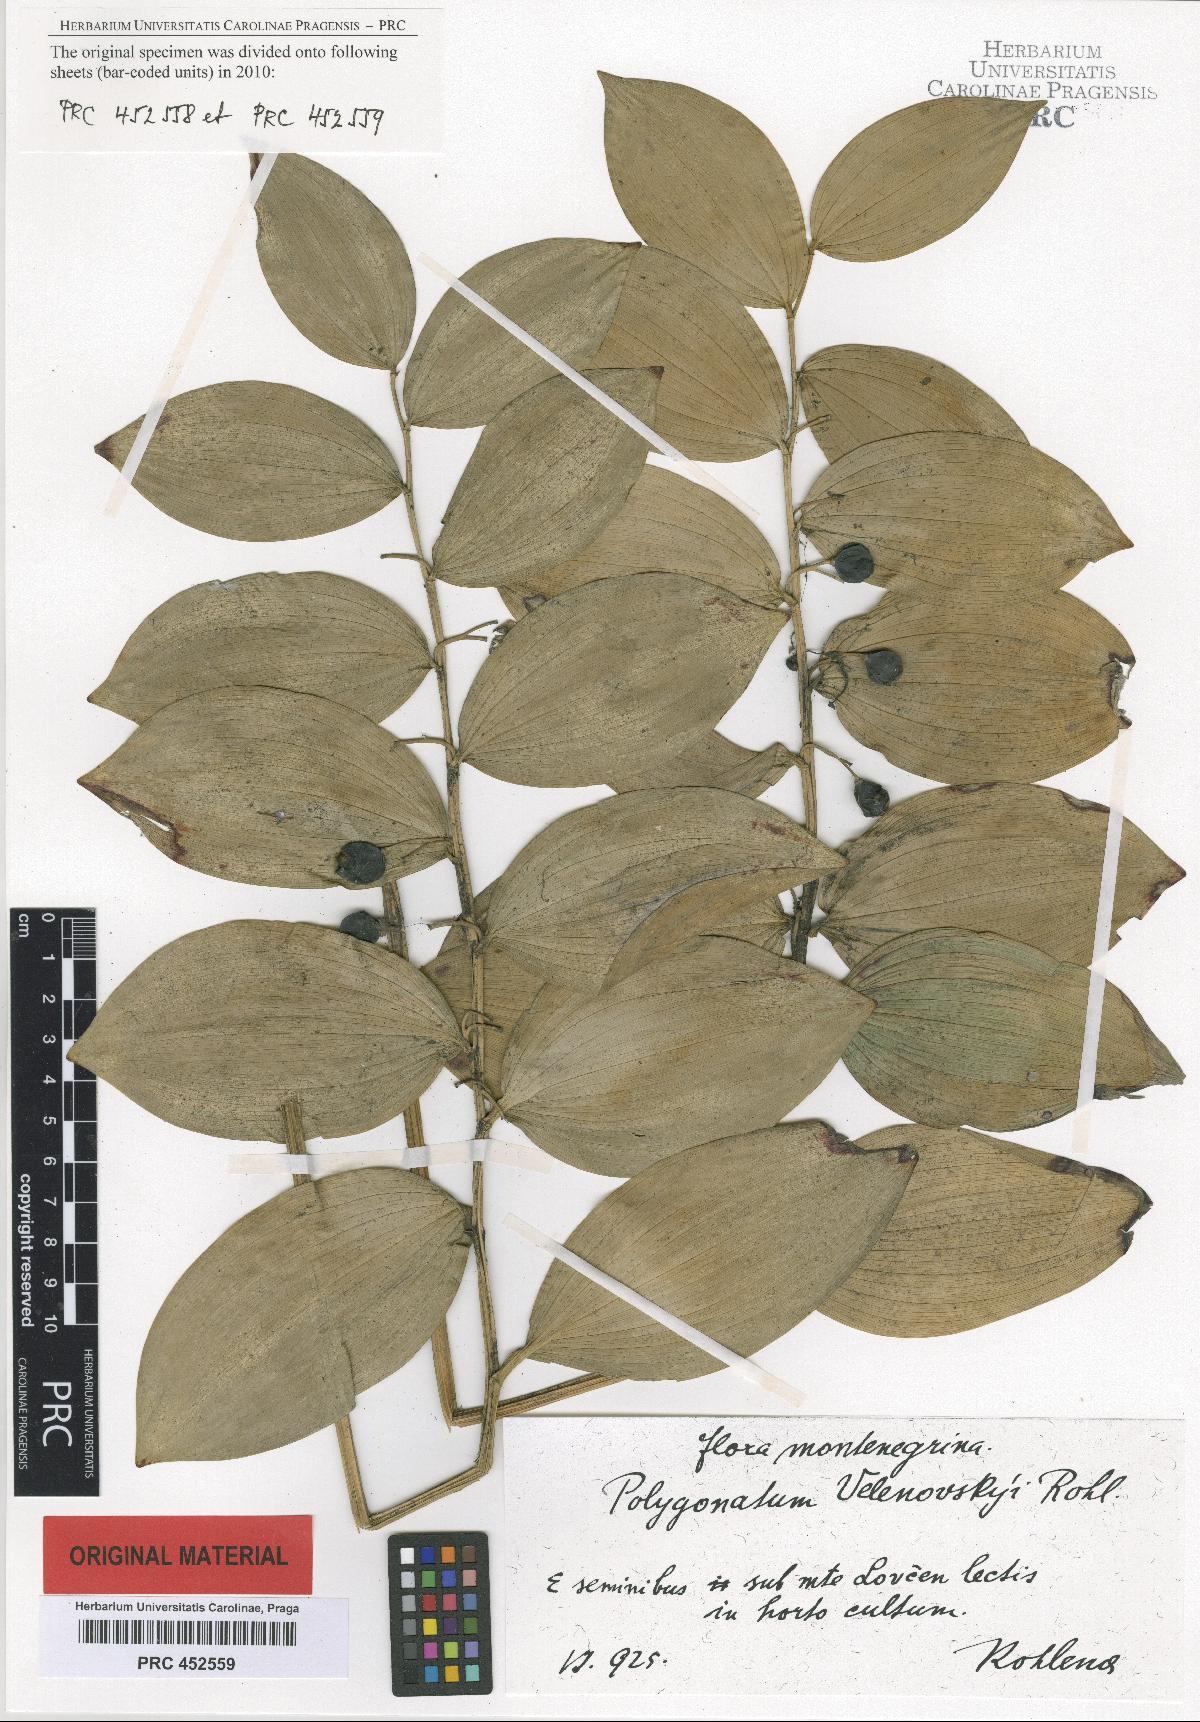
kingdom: Plantae
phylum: Tracheophyta
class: Liliopsida
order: Asparagales
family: Asparagaceae
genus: Polygonatum
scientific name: Polygonatum velenovskyi
